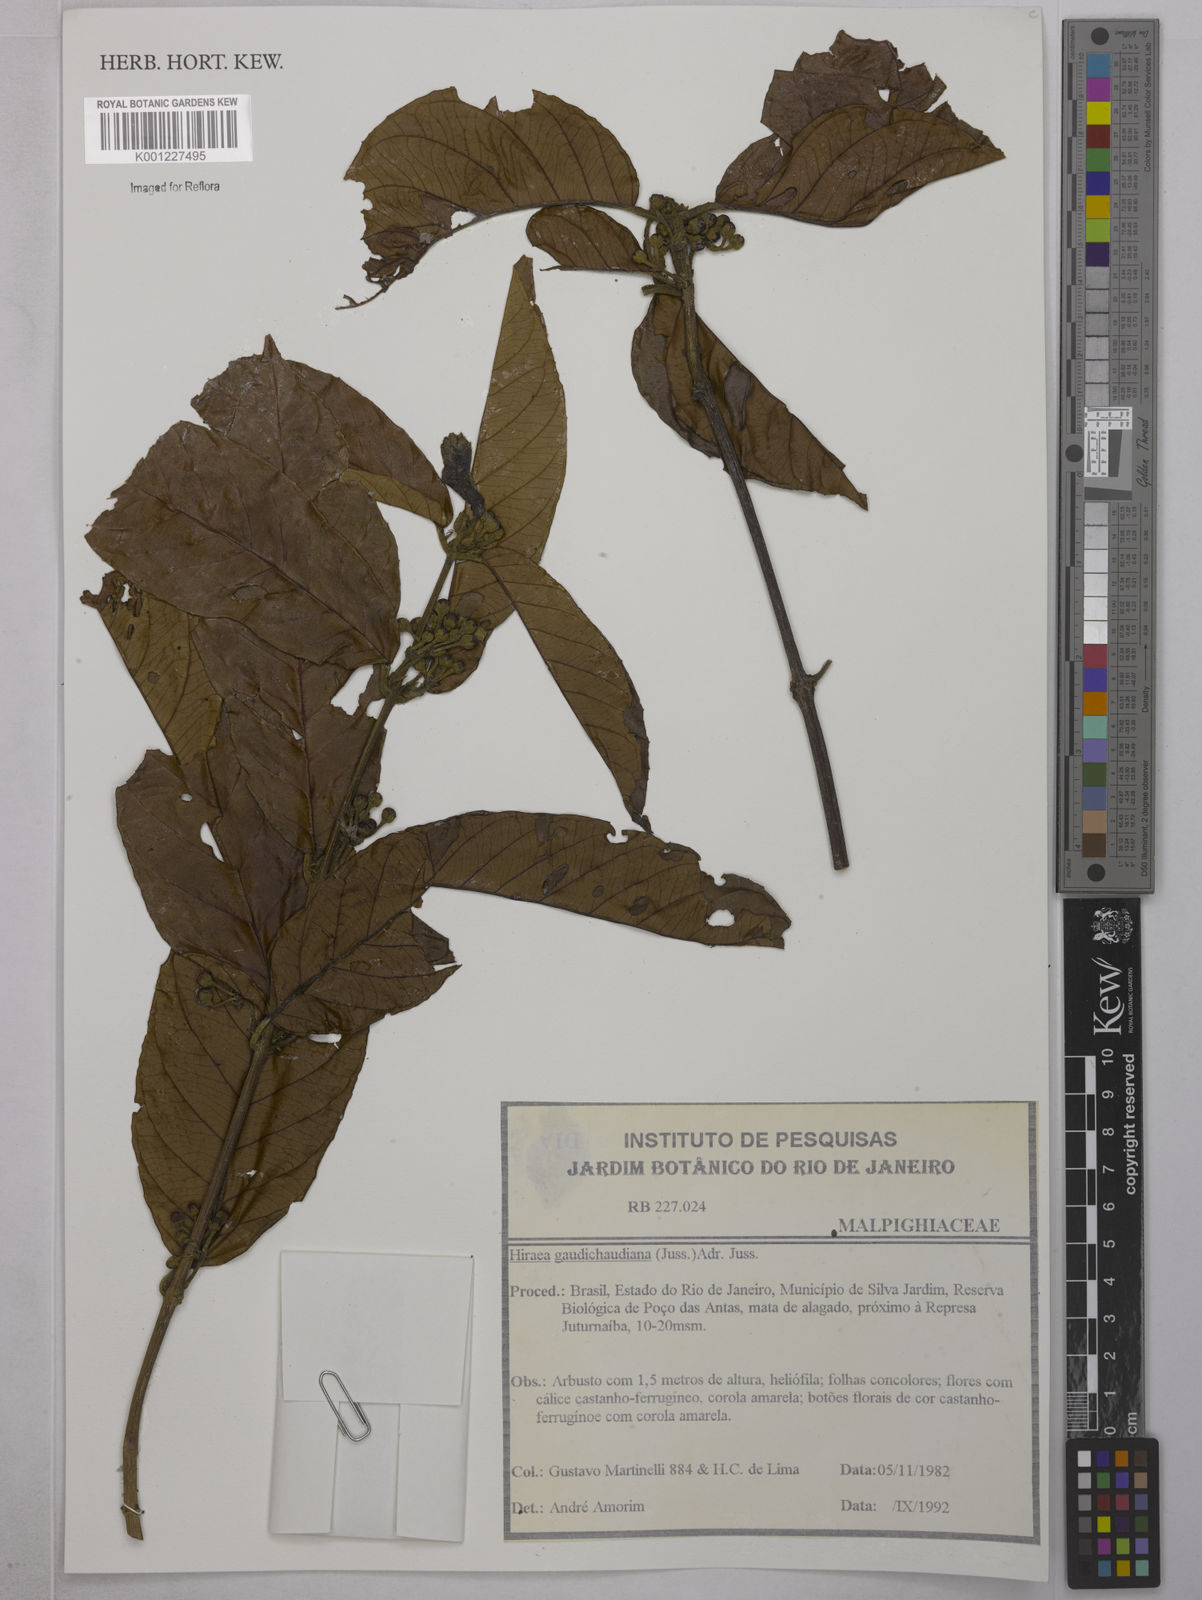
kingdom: Plantae
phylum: Tracheophyta
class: Magnoliopsida
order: Malpighiales
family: Malpighiaceae
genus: Hiraea
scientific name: Hiraea gaudichaudiana
